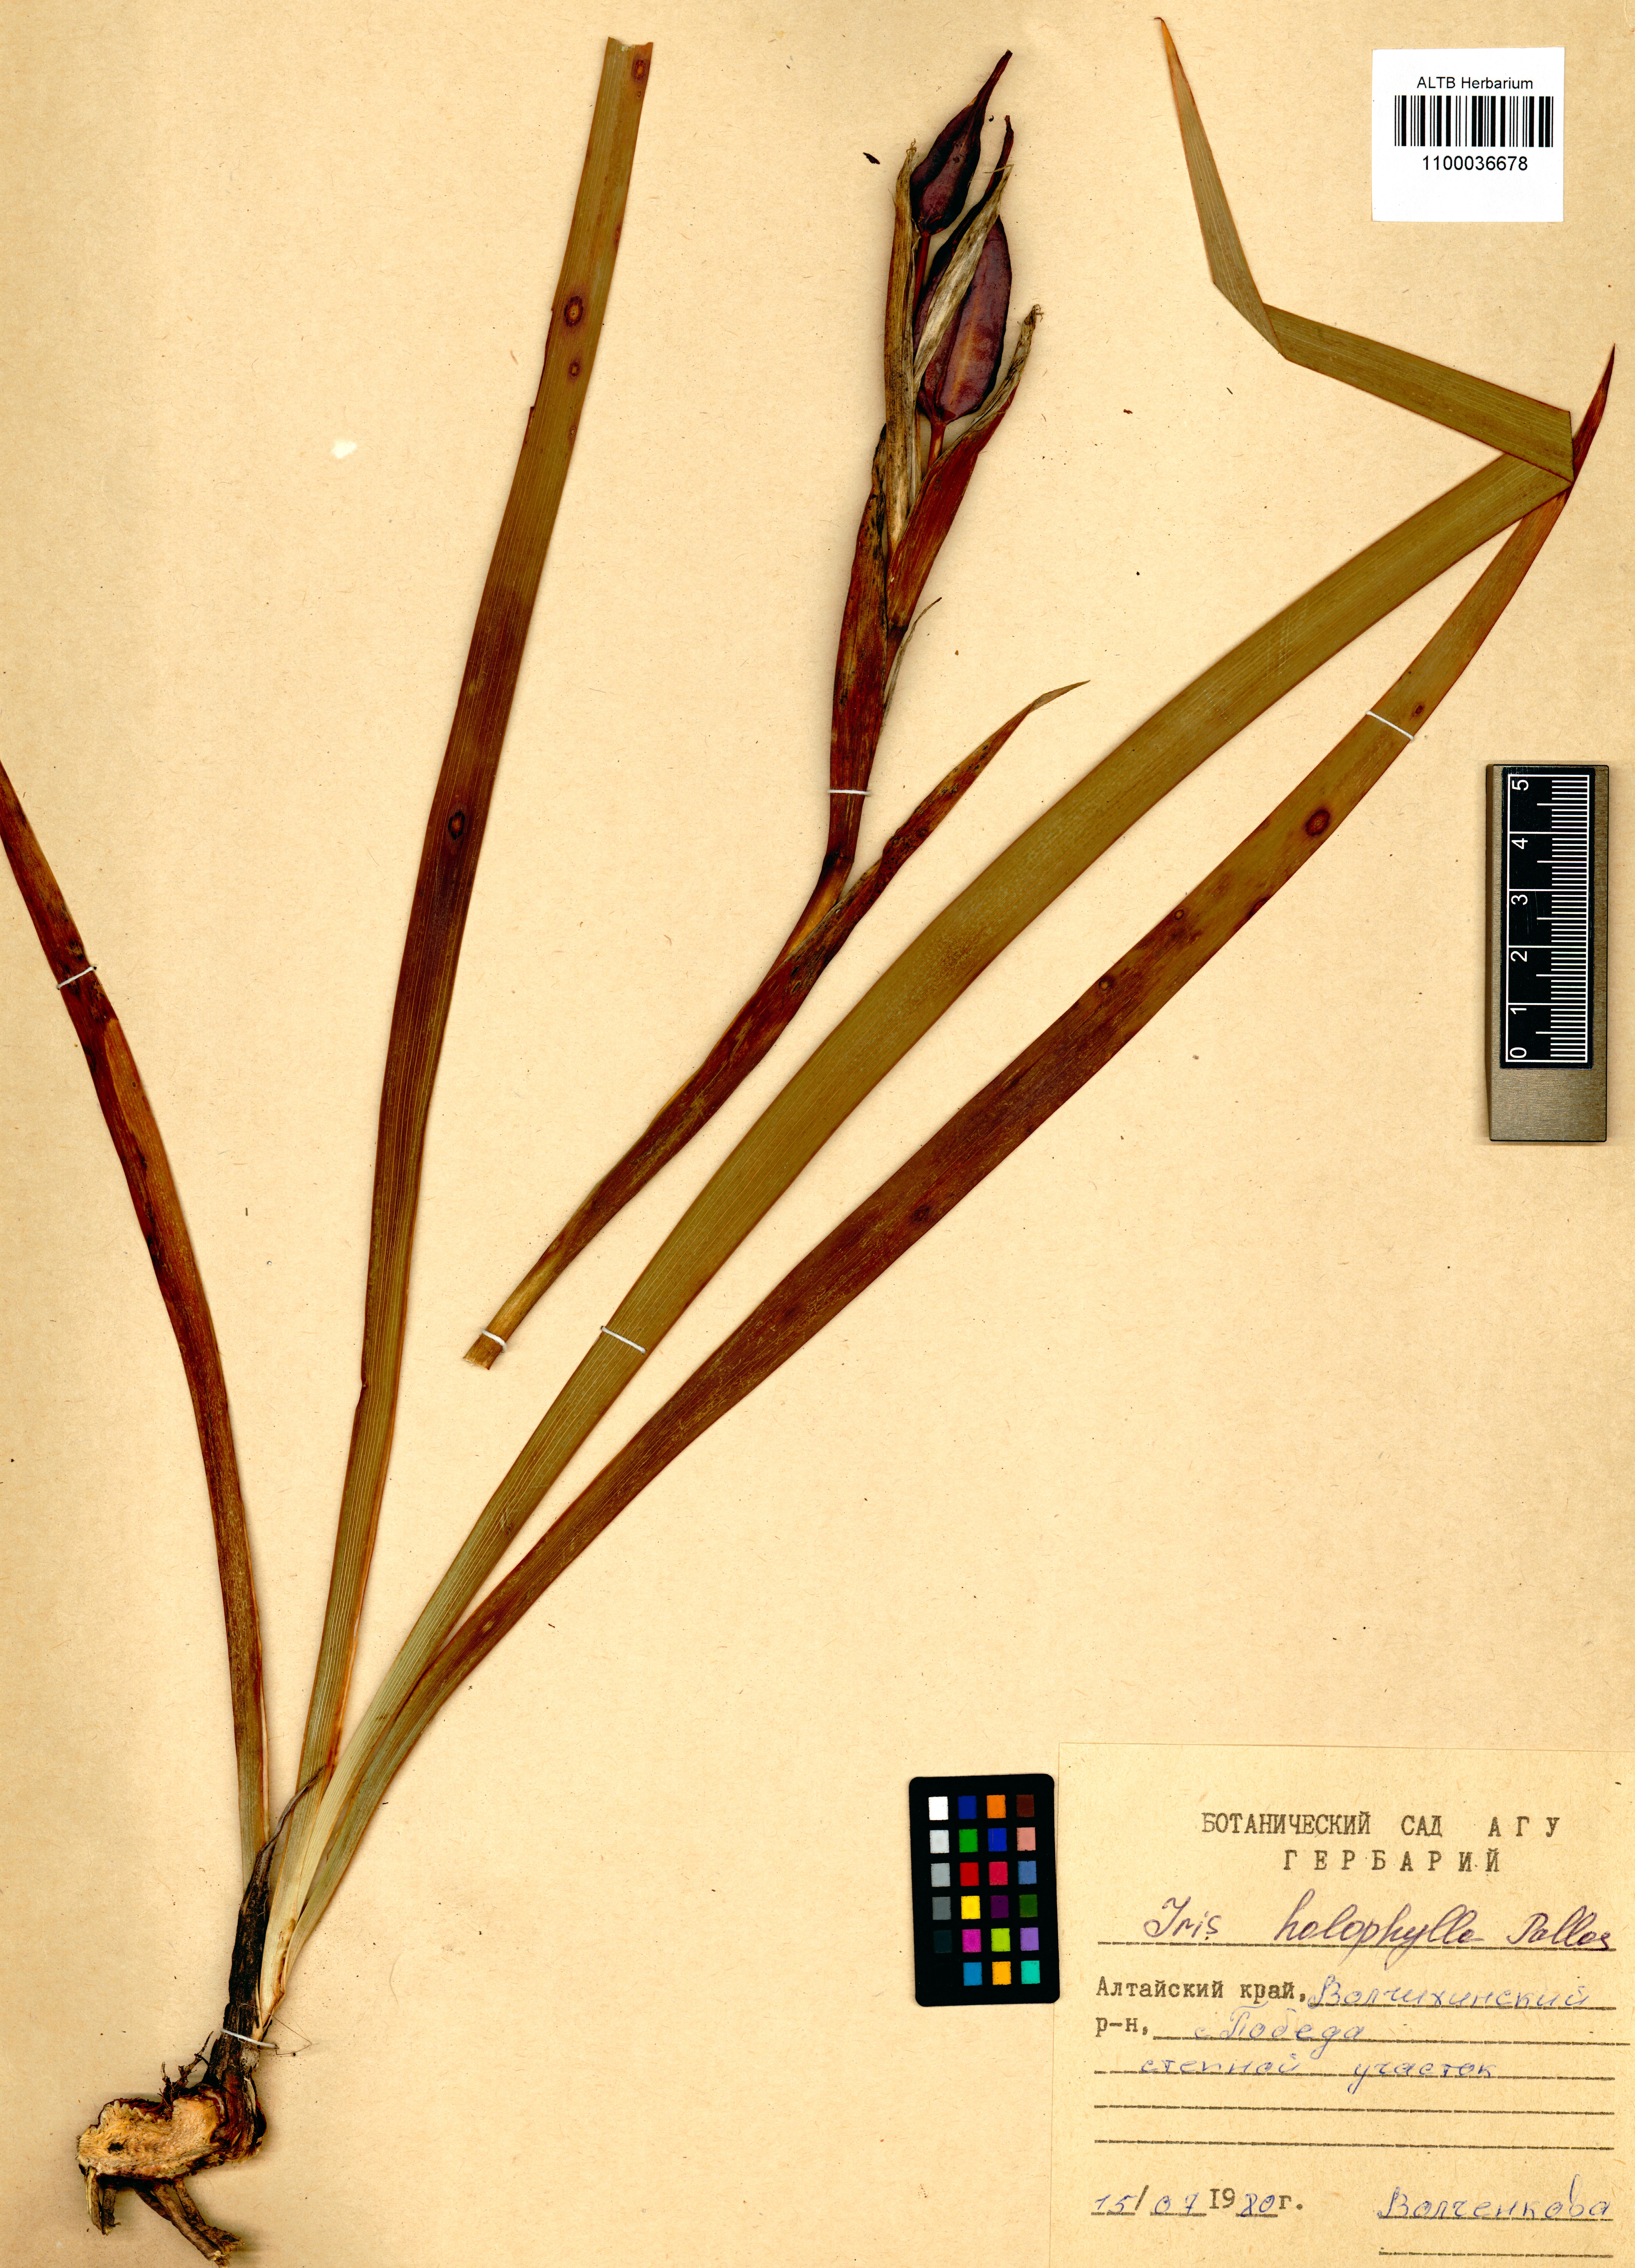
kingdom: Plantae
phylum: Tracheophyta
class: Liliopsida
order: Asparagales
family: Iridaceae
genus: Iris
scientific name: Iris halophila
